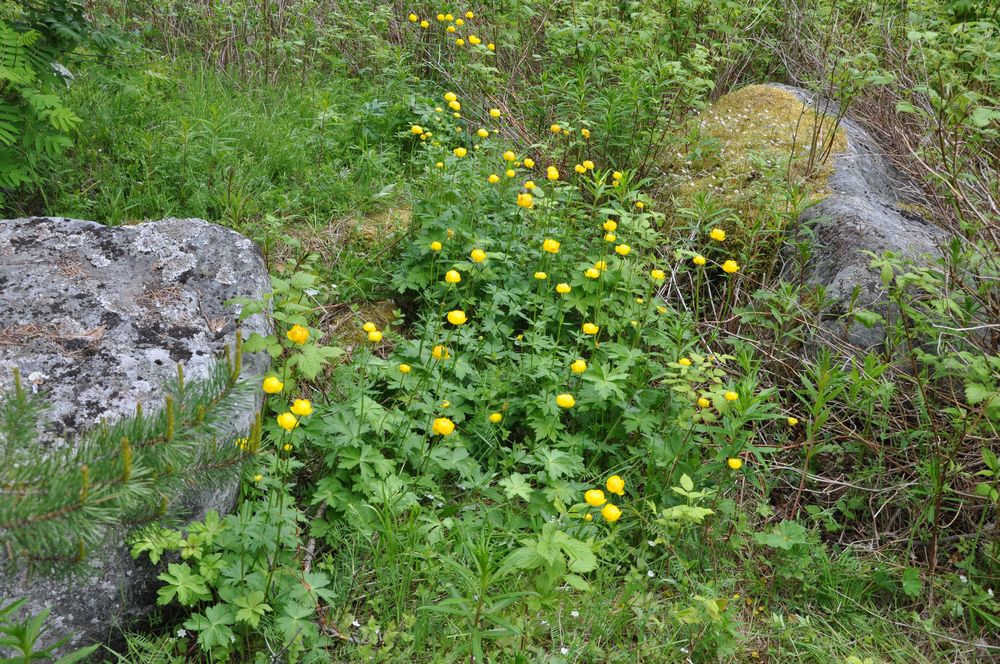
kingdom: Plantae
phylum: Tracheophyta
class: Magnoliopsida
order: Ranunculales
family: Ranunculaceae
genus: Trollius
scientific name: Trollius europaeus
